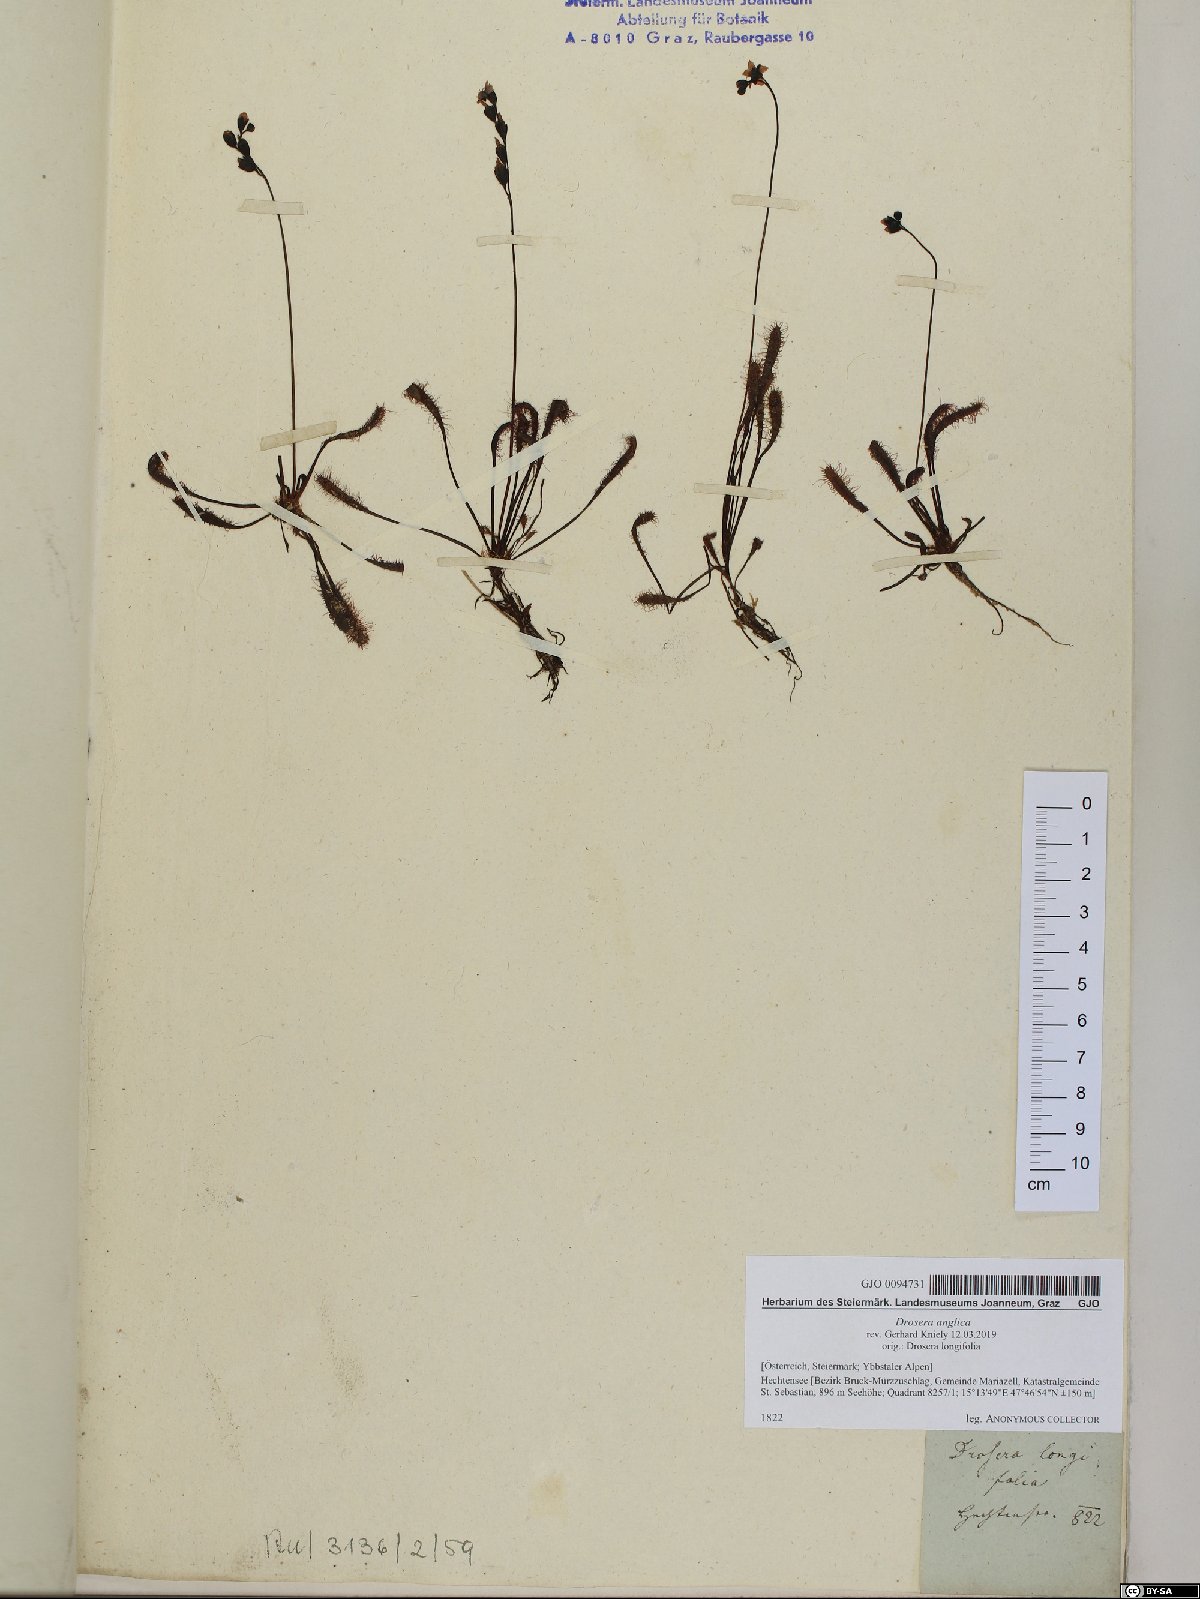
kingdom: Plantae
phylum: Tracheophyta
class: Magnoliopsida
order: Caryophyllales
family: Droseraceae
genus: Drosera
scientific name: Drosera anglica
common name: Great sundew
